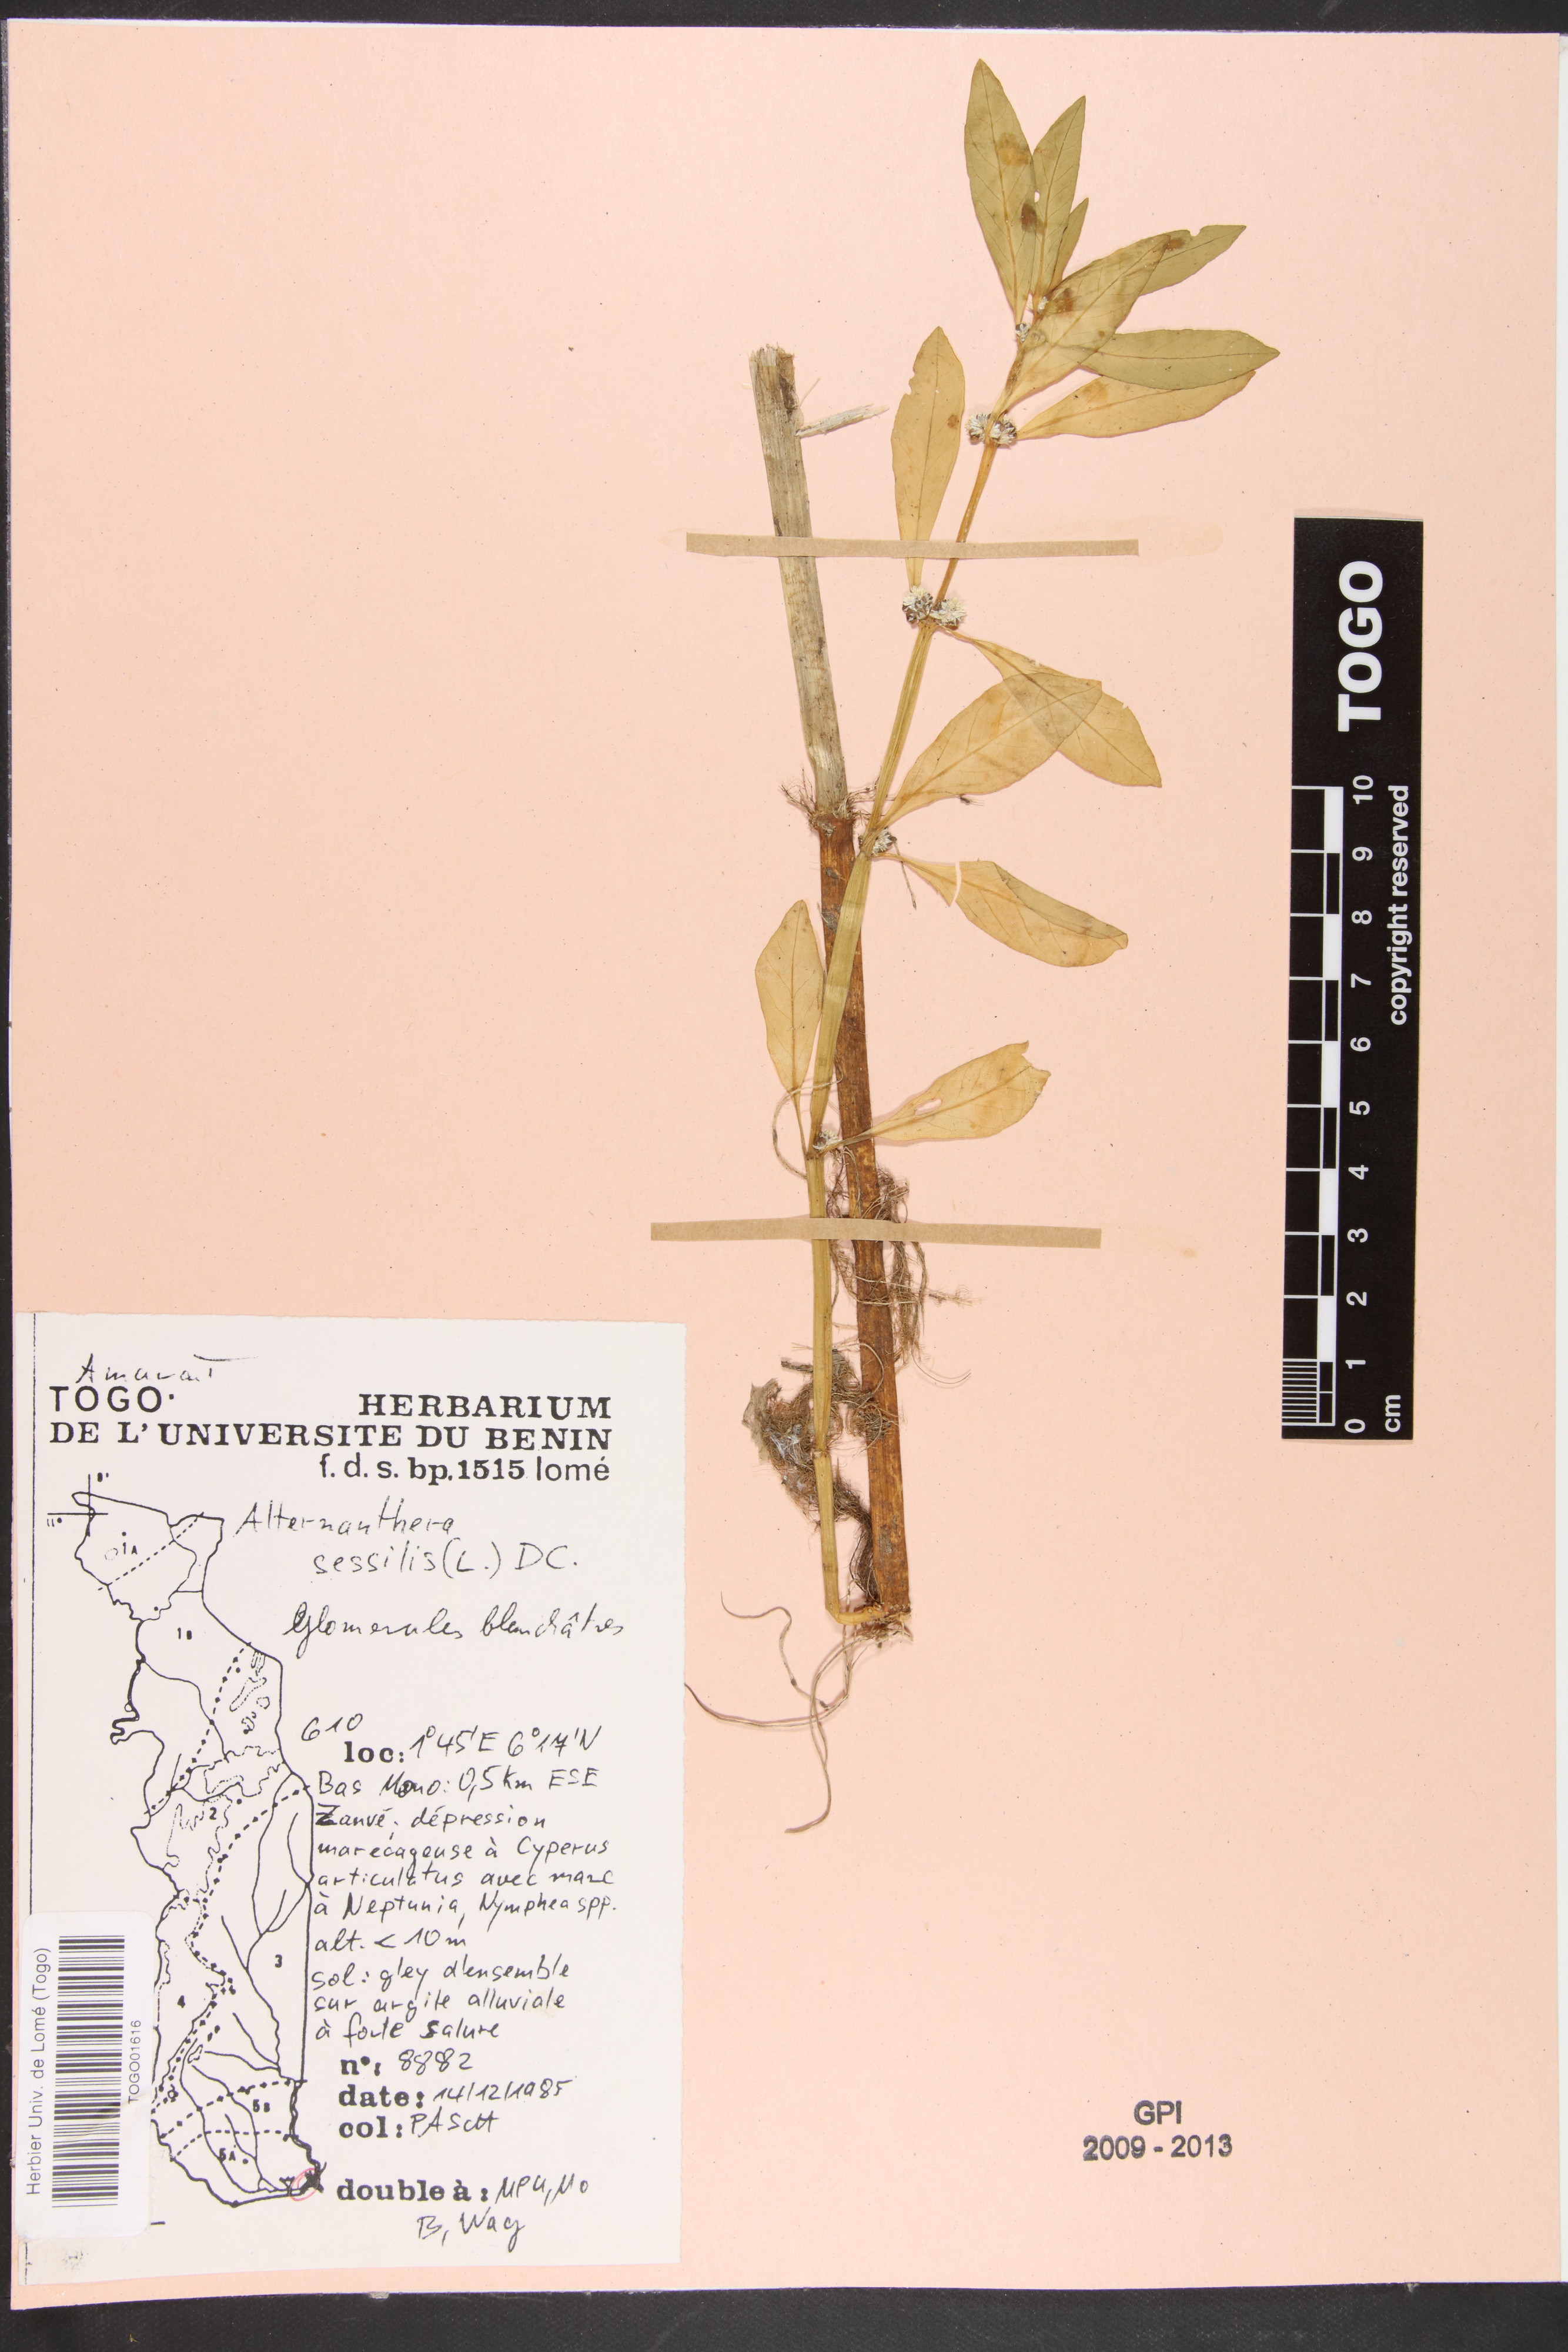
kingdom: Plantae
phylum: Tracheophyta
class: Magnoliopsida
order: Caryophyllales
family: Amaranthaceae
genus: Alternanthera
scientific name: Alternanthera sessilis
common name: Sessile joyweed
